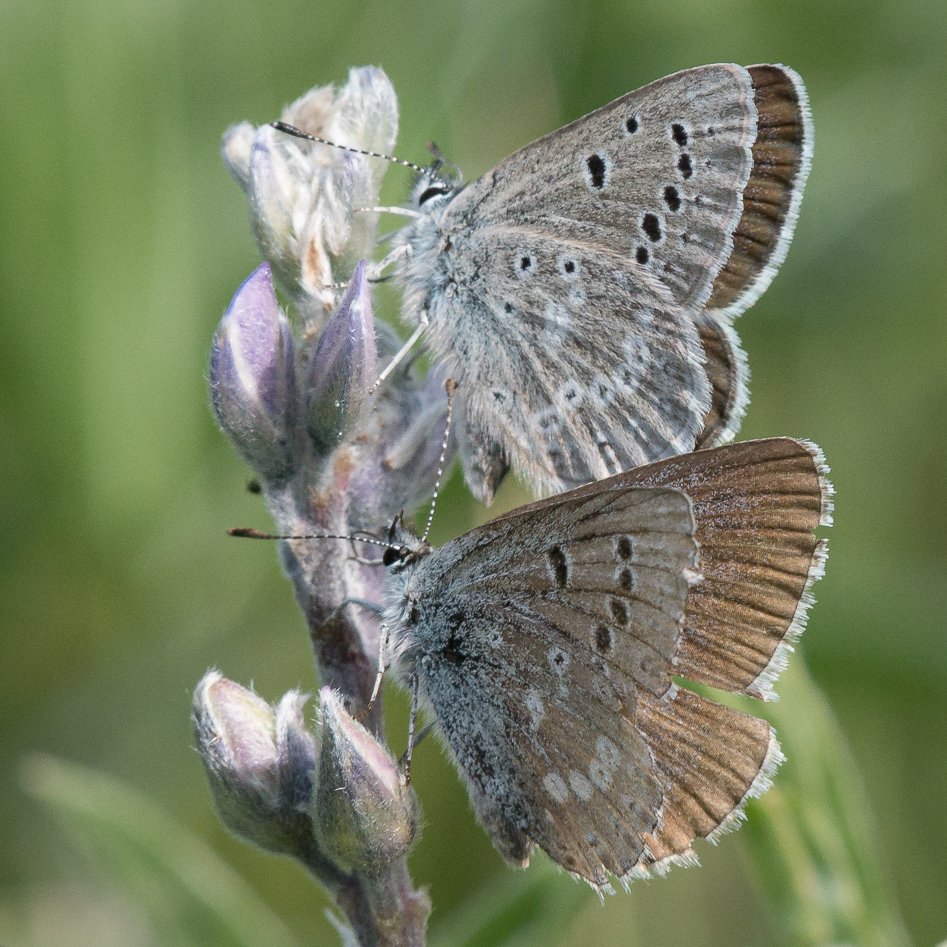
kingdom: Animalia
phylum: Arthropoda
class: Insecta
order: Lepidoptera
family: Lycaenidae
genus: Icaricia
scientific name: Icaricia icarioides
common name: Boisduval's Blue
